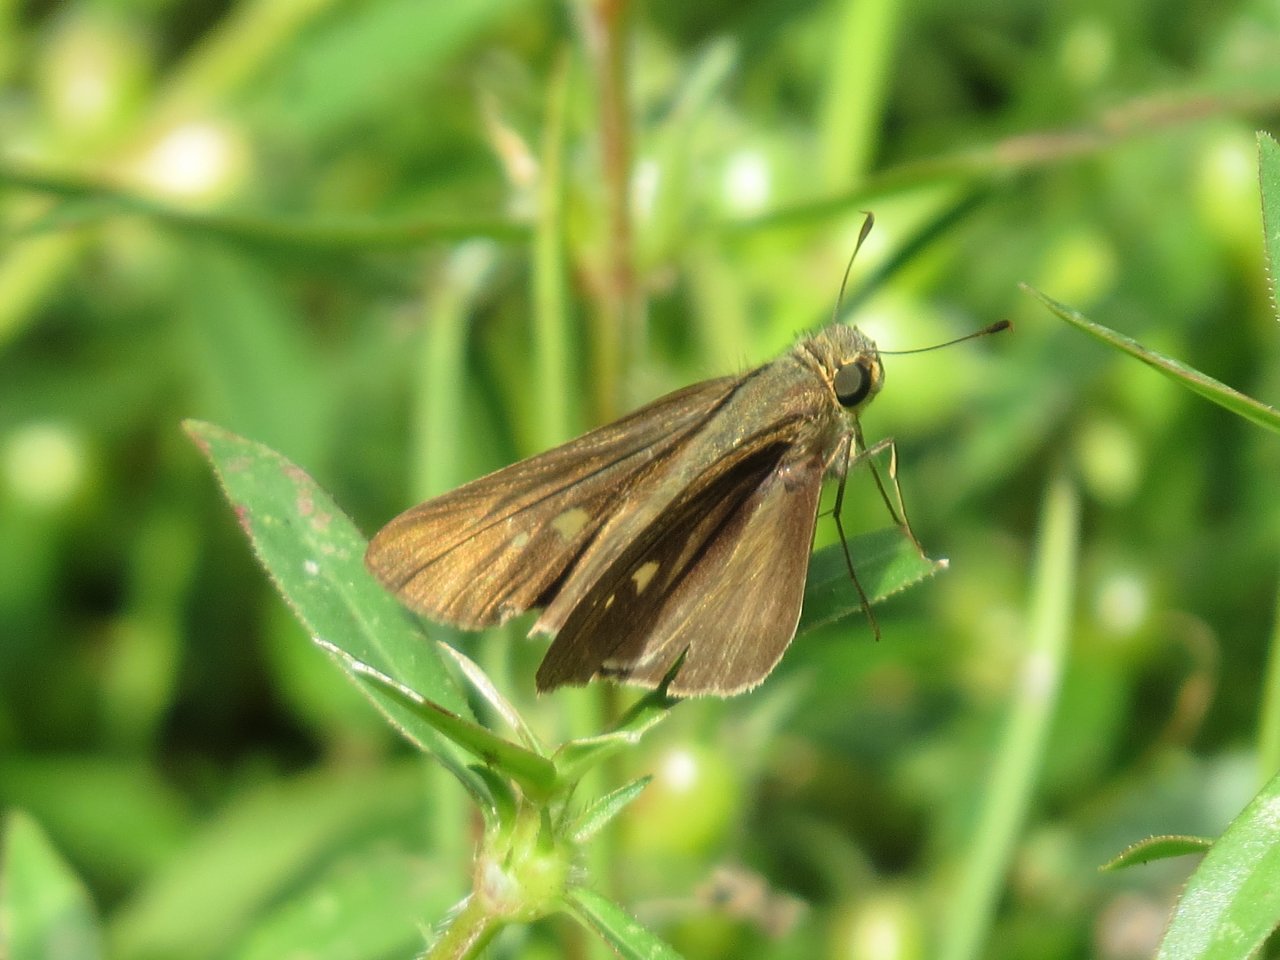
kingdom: Animalia
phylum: Arthropoda
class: Insecta
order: Lepidoptera
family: Hesperiidae
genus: Panoquina
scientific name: Panoquina ocola
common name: Ocola Skipper
